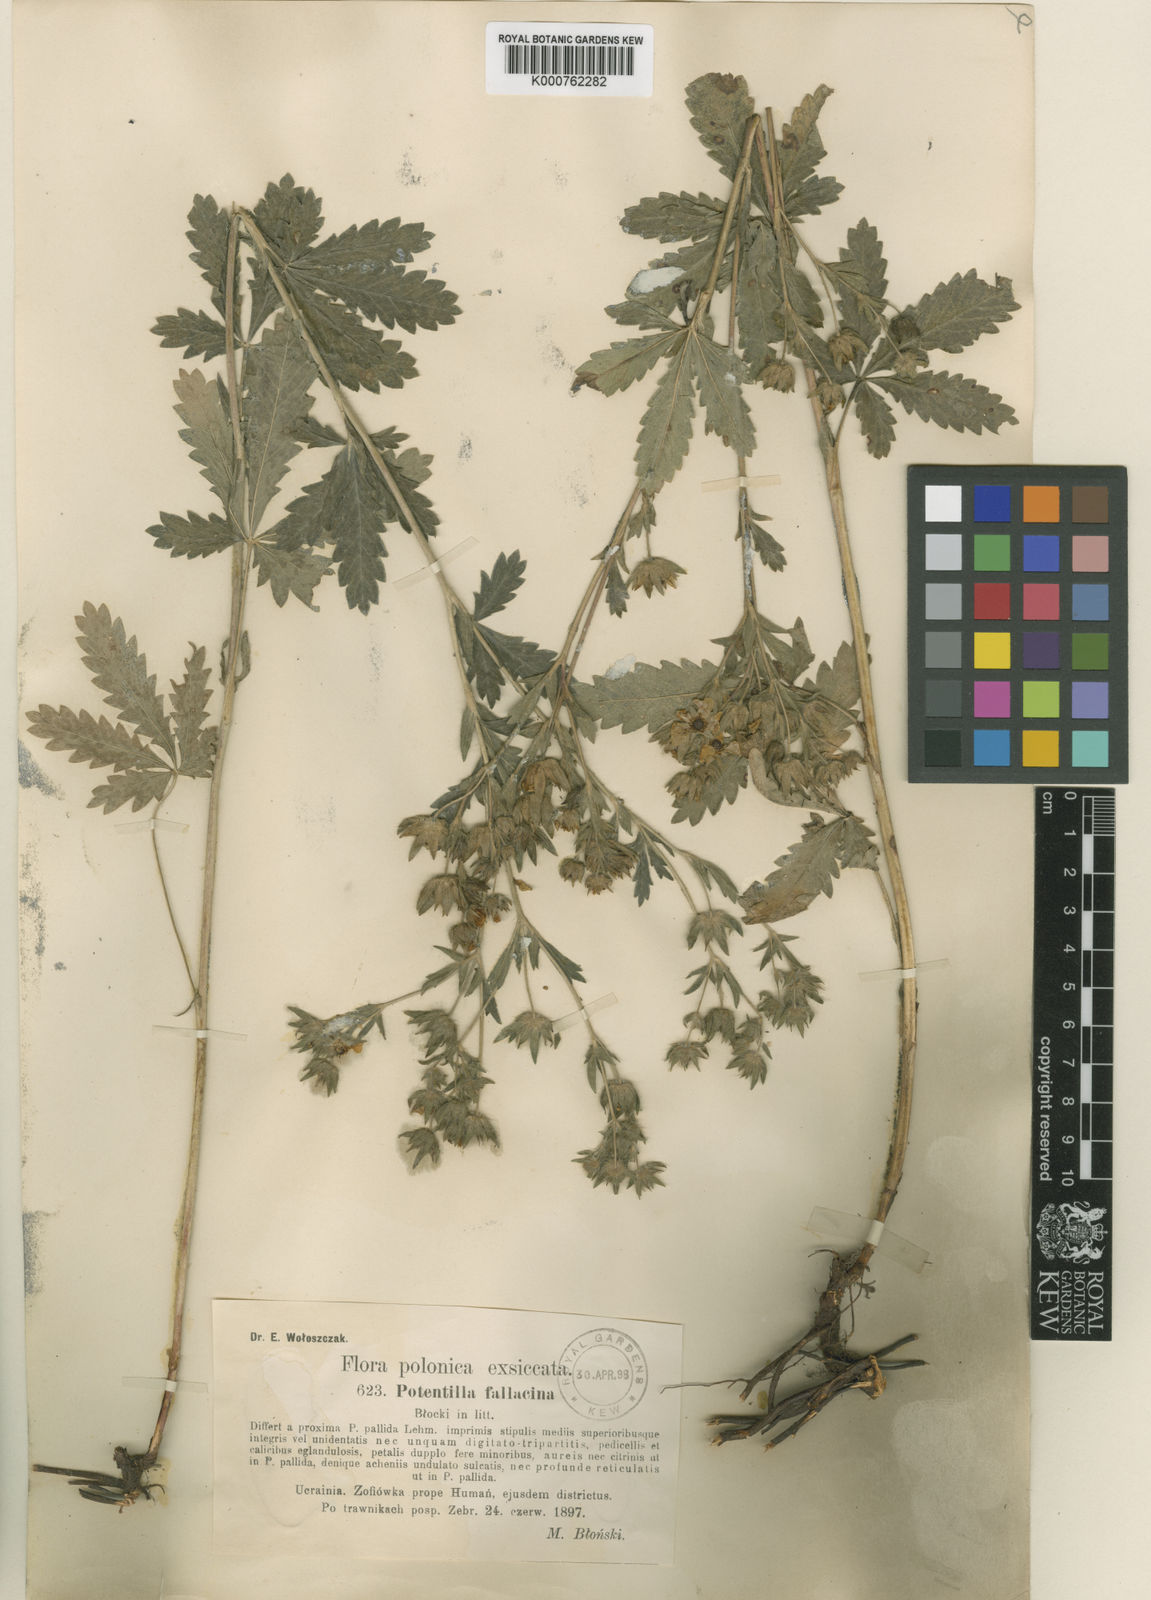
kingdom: Plantae
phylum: Tracheophyta
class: Magnoliopsida
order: Rosales
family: Rosaceae
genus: Potentilla
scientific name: Potentilla recta
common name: Sulphur cinquefoil
